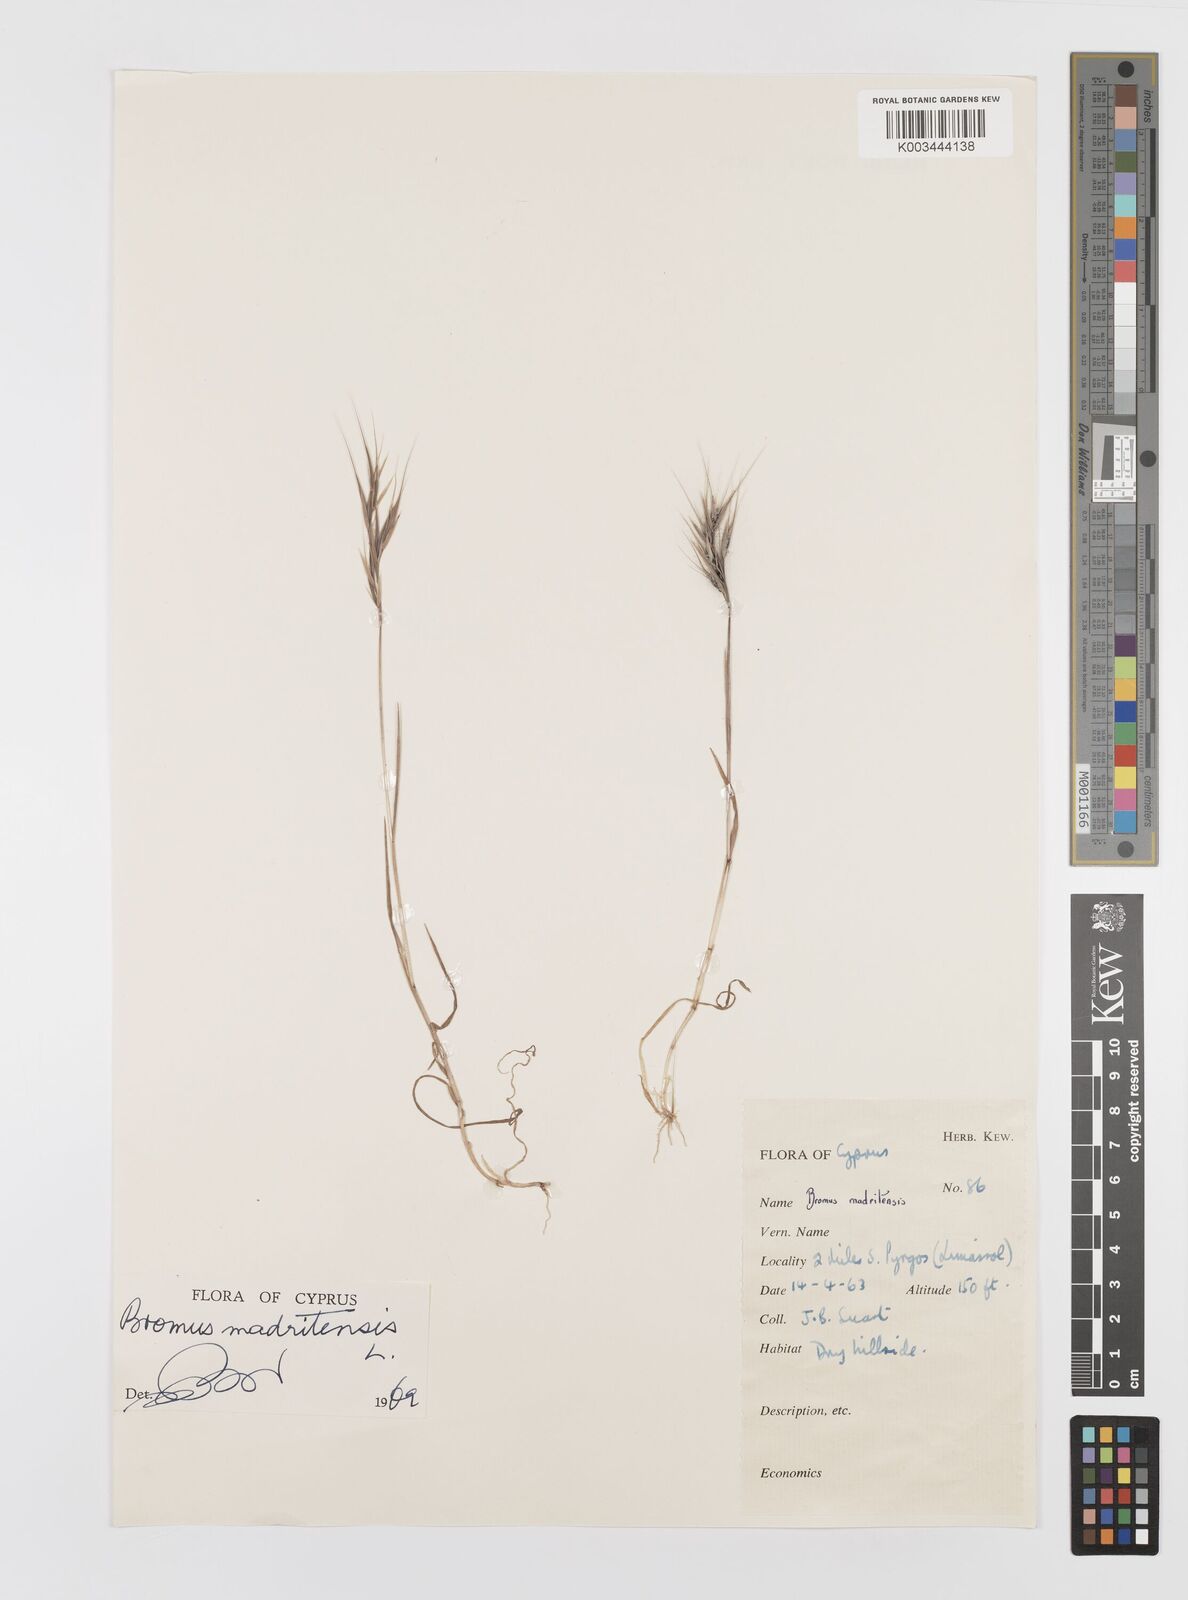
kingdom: Plantae
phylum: Tracheophyta
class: Liliopsida
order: Poales
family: Poaceae
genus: Bromus
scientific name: Bromus madritensis
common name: Compact brome
